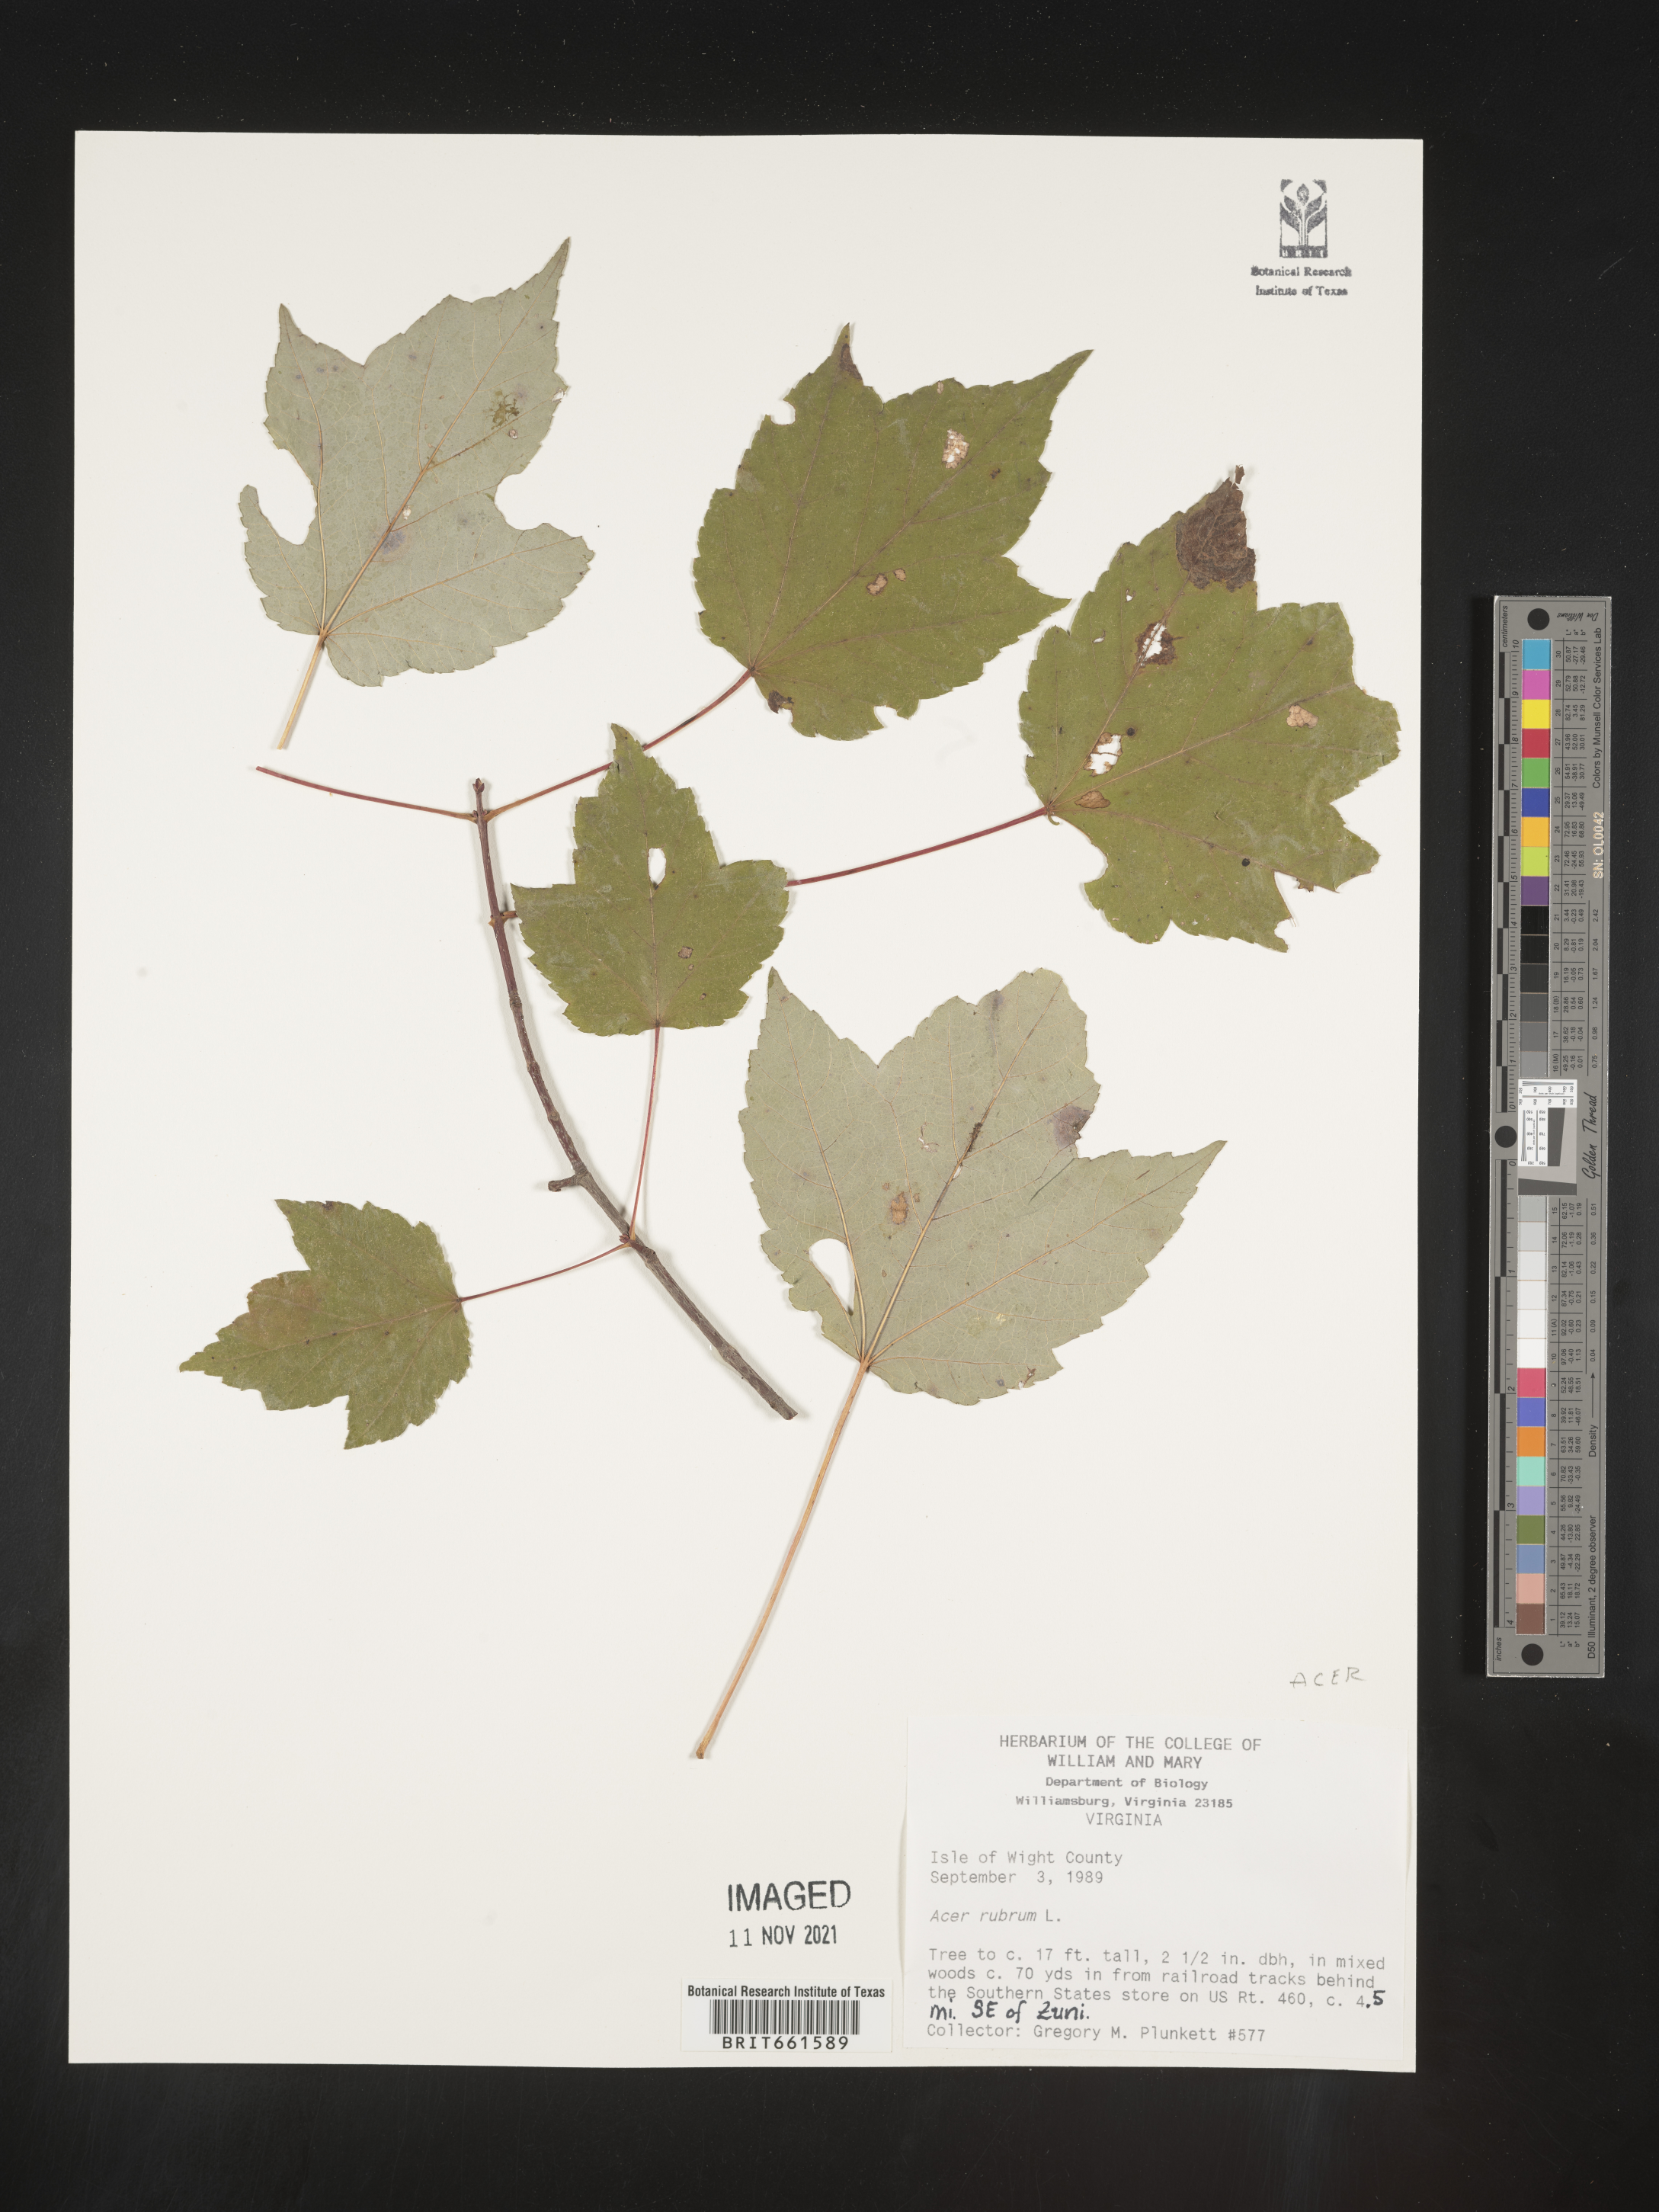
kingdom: Plantae
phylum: Tracheophyta
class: Magnoliopsida
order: Sapindales
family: Sapindaceae
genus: Acer
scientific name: Acer rubrum
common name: Red maple
